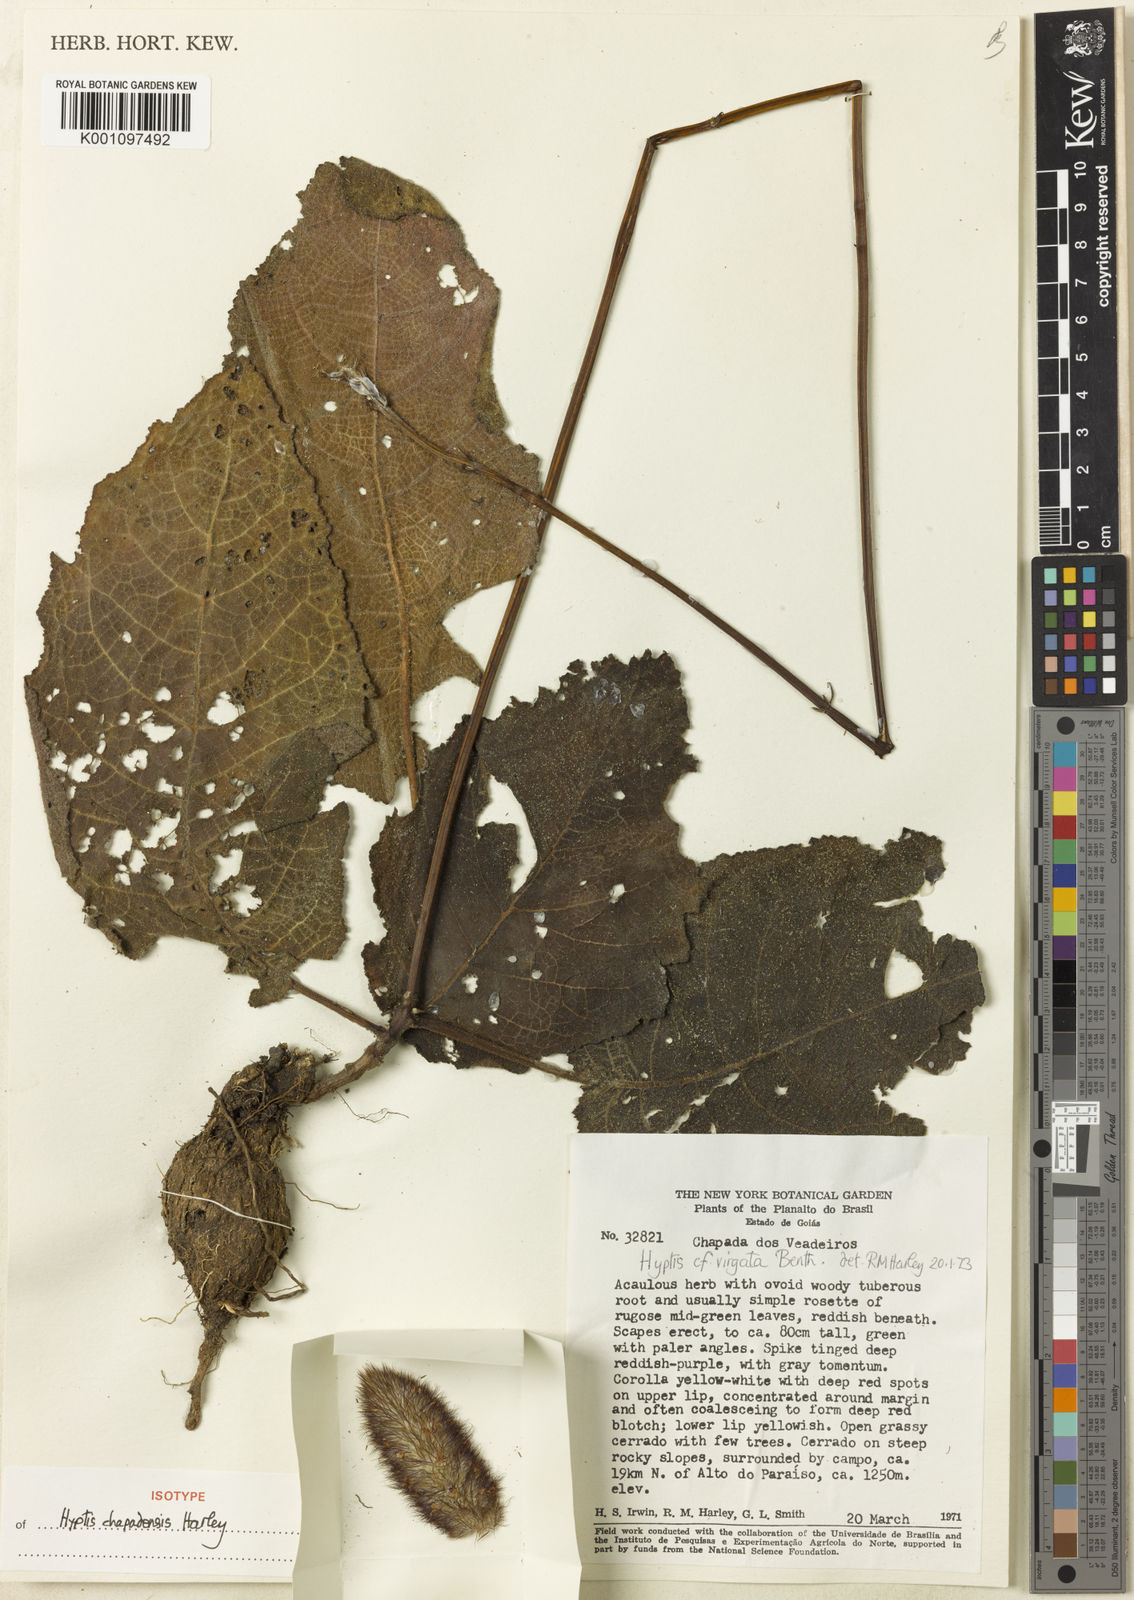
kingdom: Plantae
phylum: Tracheophyta
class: Magnoliopsida
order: Lamiales
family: Lamiaceae
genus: Hyptis
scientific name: Hyptis
